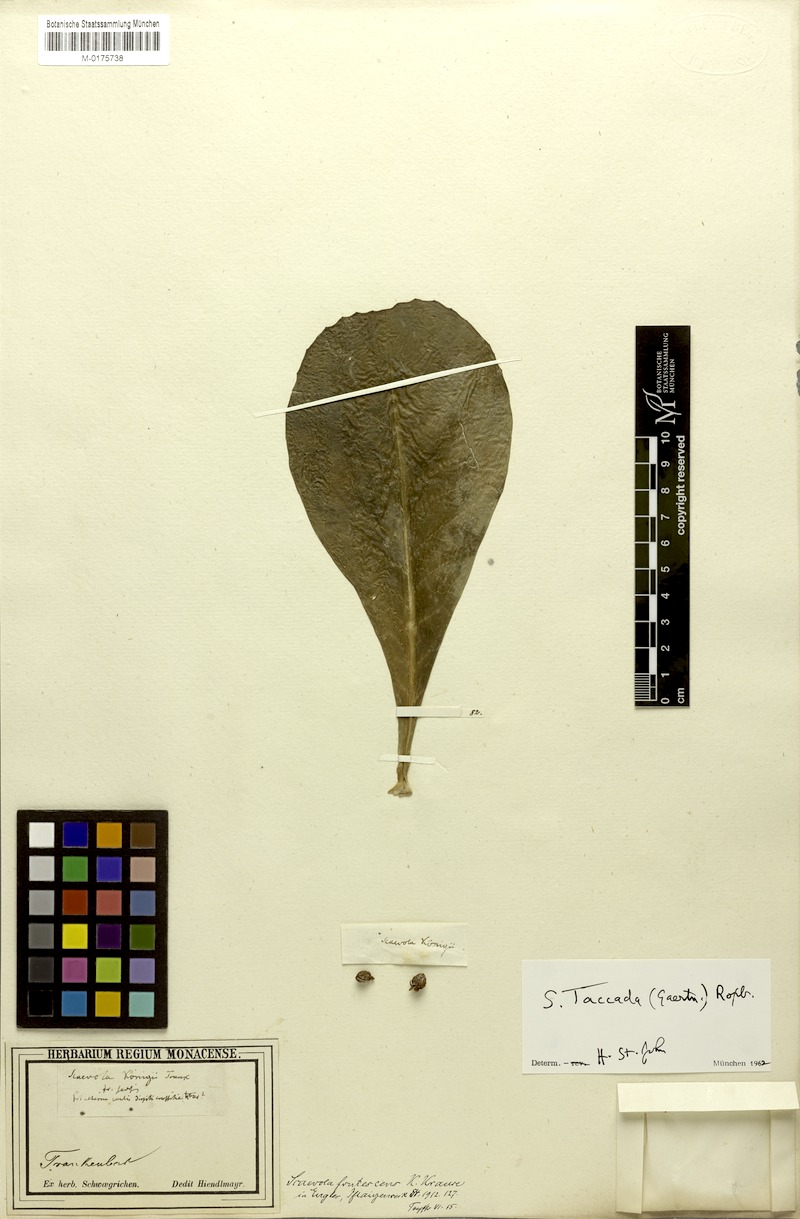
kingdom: Plantae
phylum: Tracheophyta
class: Magnoliopsida
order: Asterales
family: Goodeniaceae
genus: Scaevola
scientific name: Scaevola taccada
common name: Sea lettucetree
